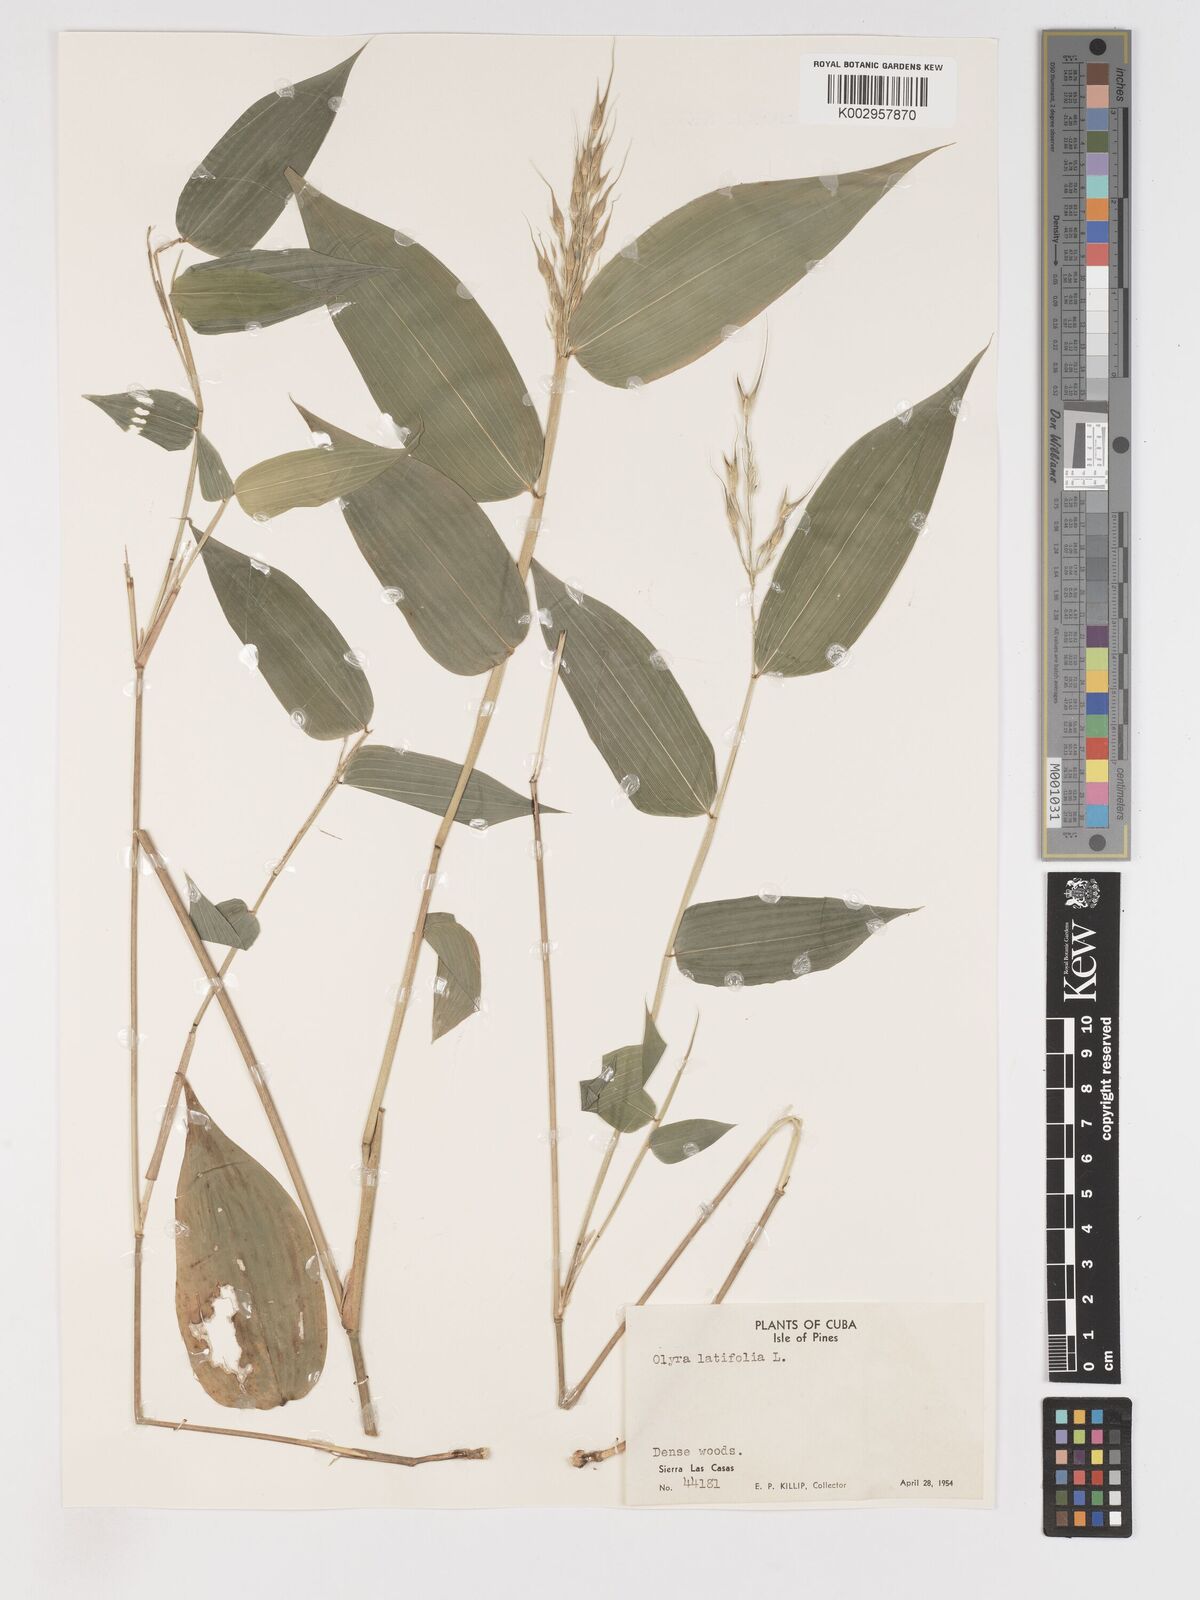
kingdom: Plantae
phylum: Tracheophyta
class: Liliopsida
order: Poales
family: Poaceae
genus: Olyra
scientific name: Olyra latifolia
